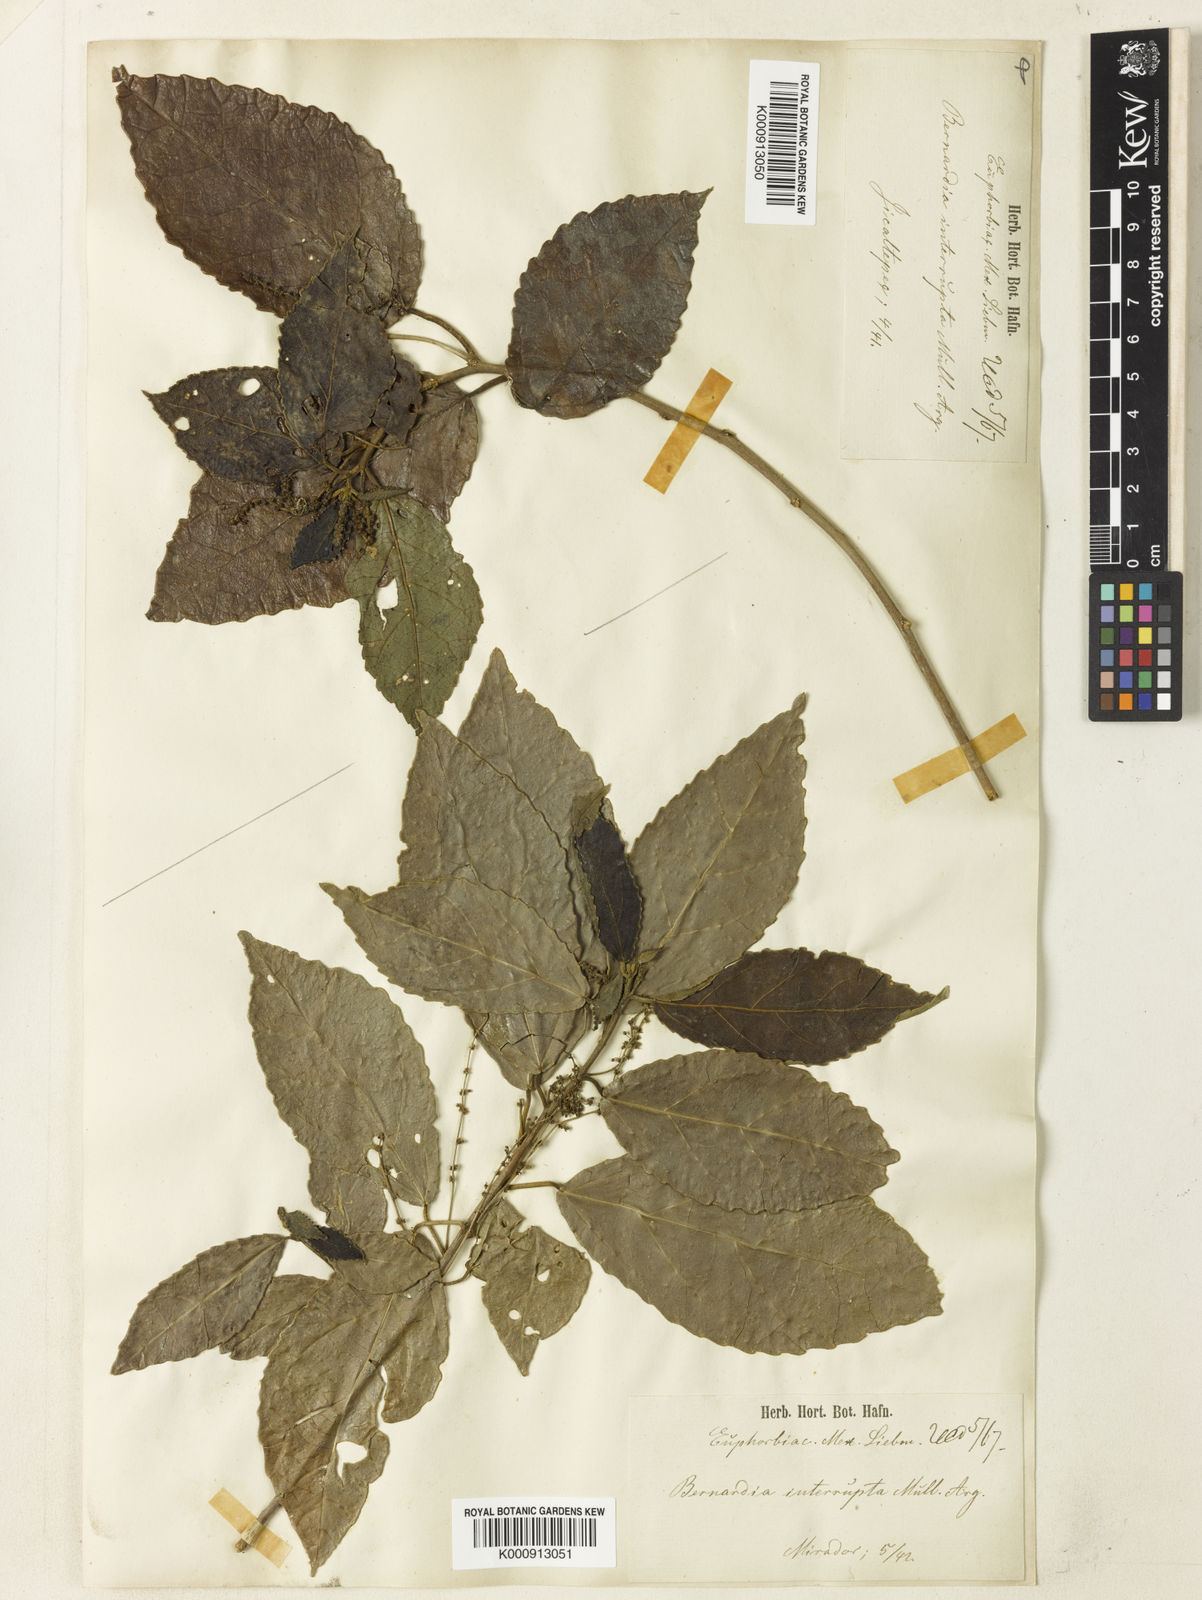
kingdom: Plantae
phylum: Tracheophyta
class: Magnoliopsida
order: Malpighiales
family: Euphorbiaceae
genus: Bernardia
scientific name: Bernardia
